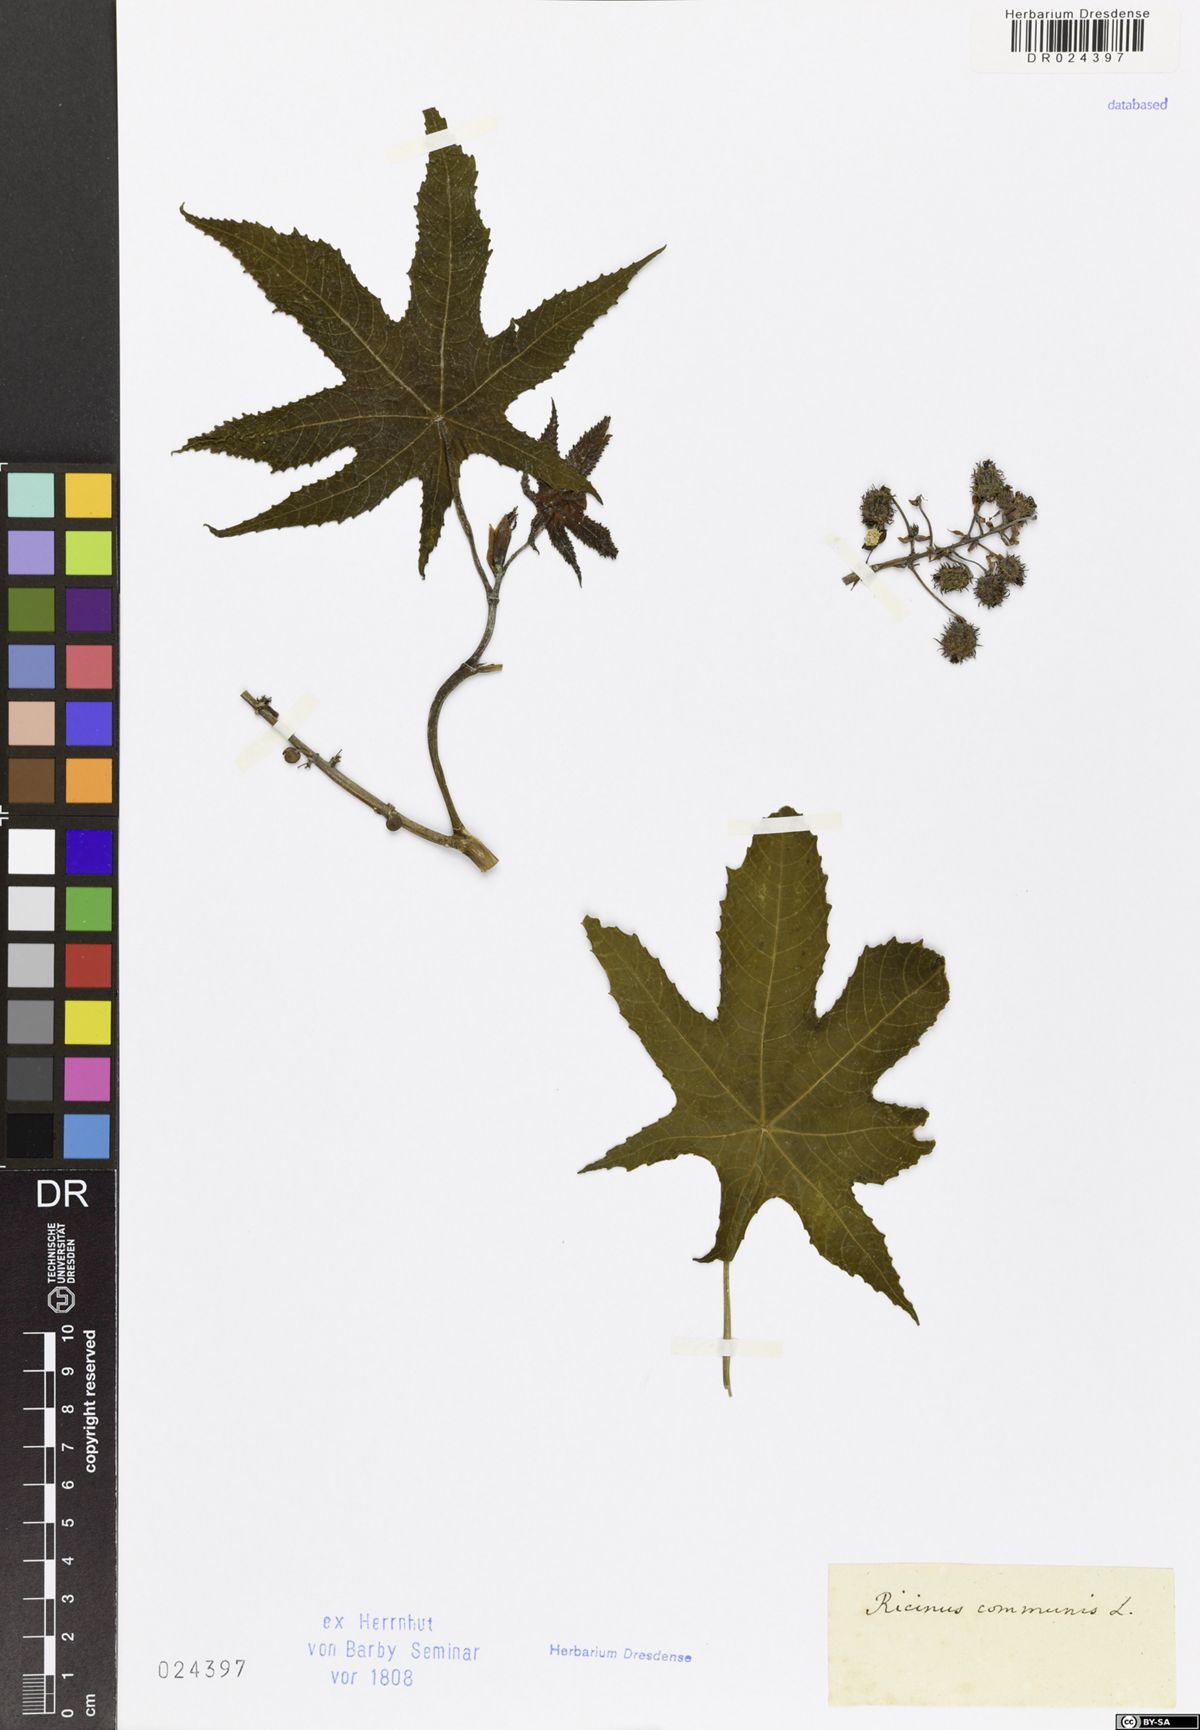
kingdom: Plantae
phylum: Tracheophyta
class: Magnoliopsida
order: Malpighiales
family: Euphorbiaceae
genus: Ricinus
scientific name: Ricinus communis
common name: Castor-oil-plant
